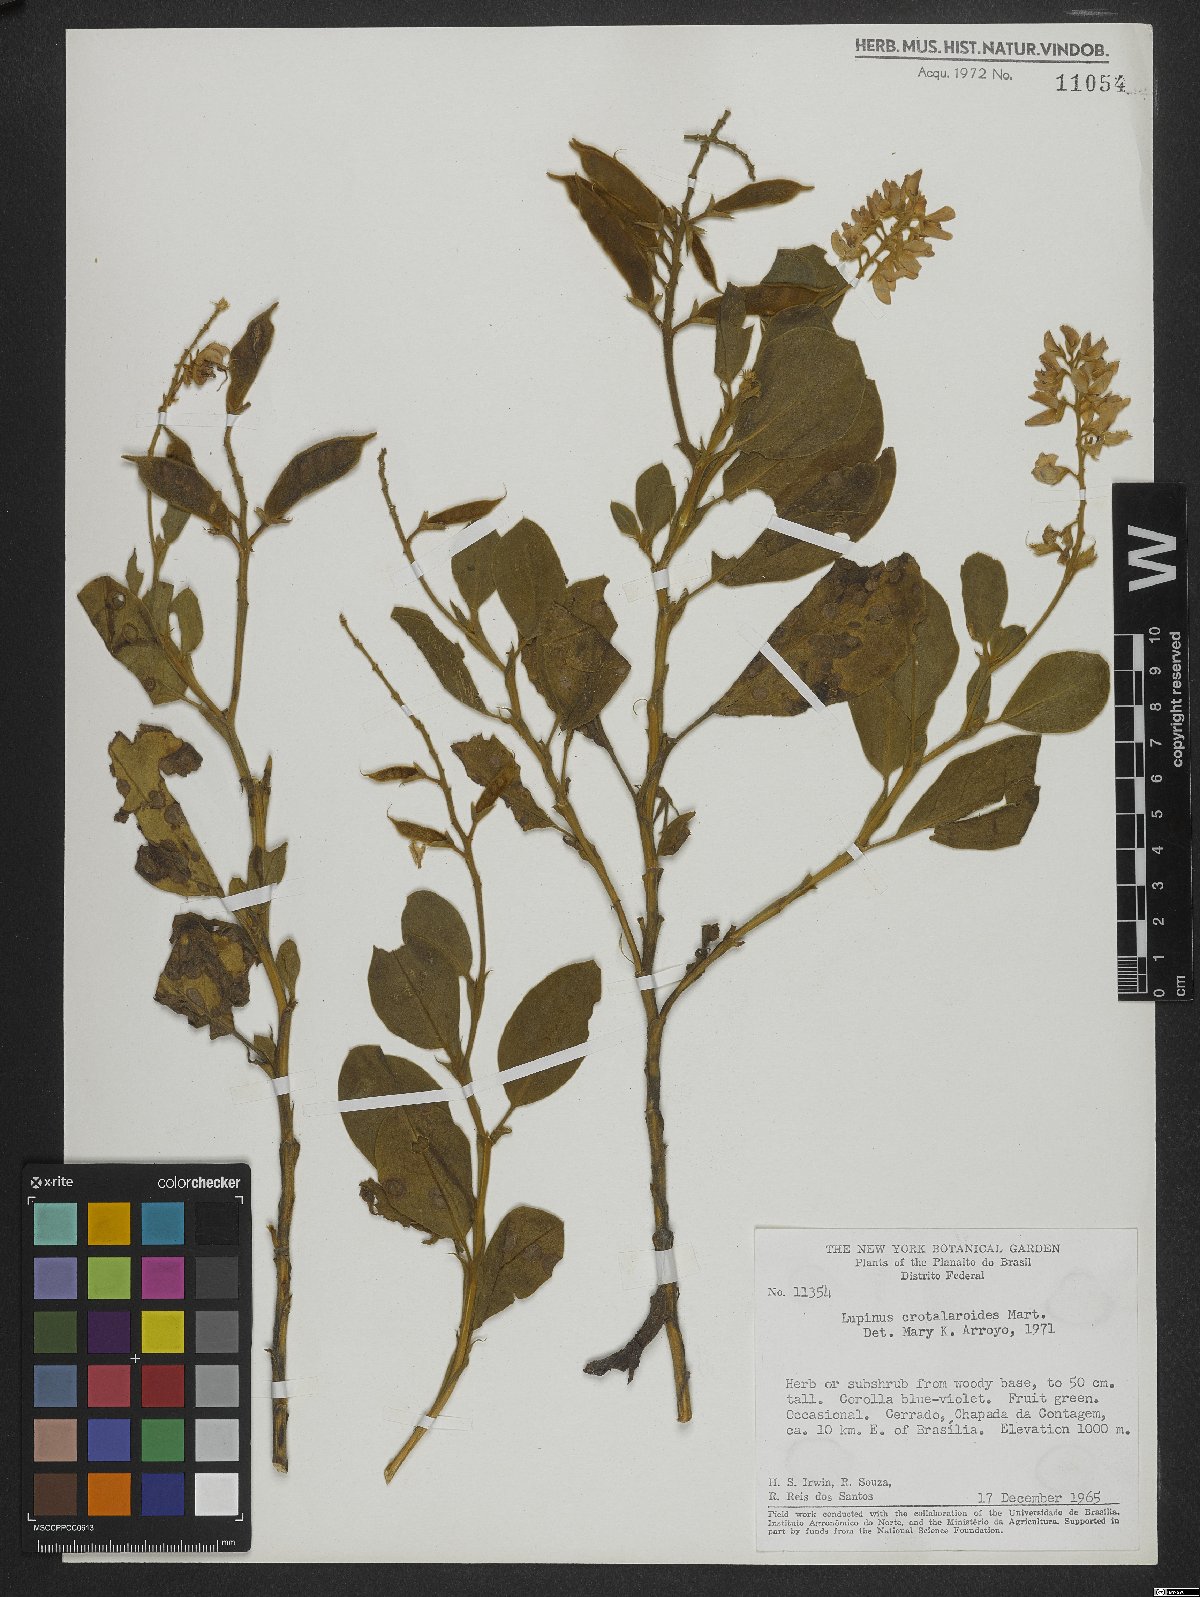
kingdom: Plantae
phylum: Tracheophyta
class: Magnoliopsida
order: Fabales
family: Fabaceae
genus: Lupinus
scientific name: Lupinus crotalarioides
